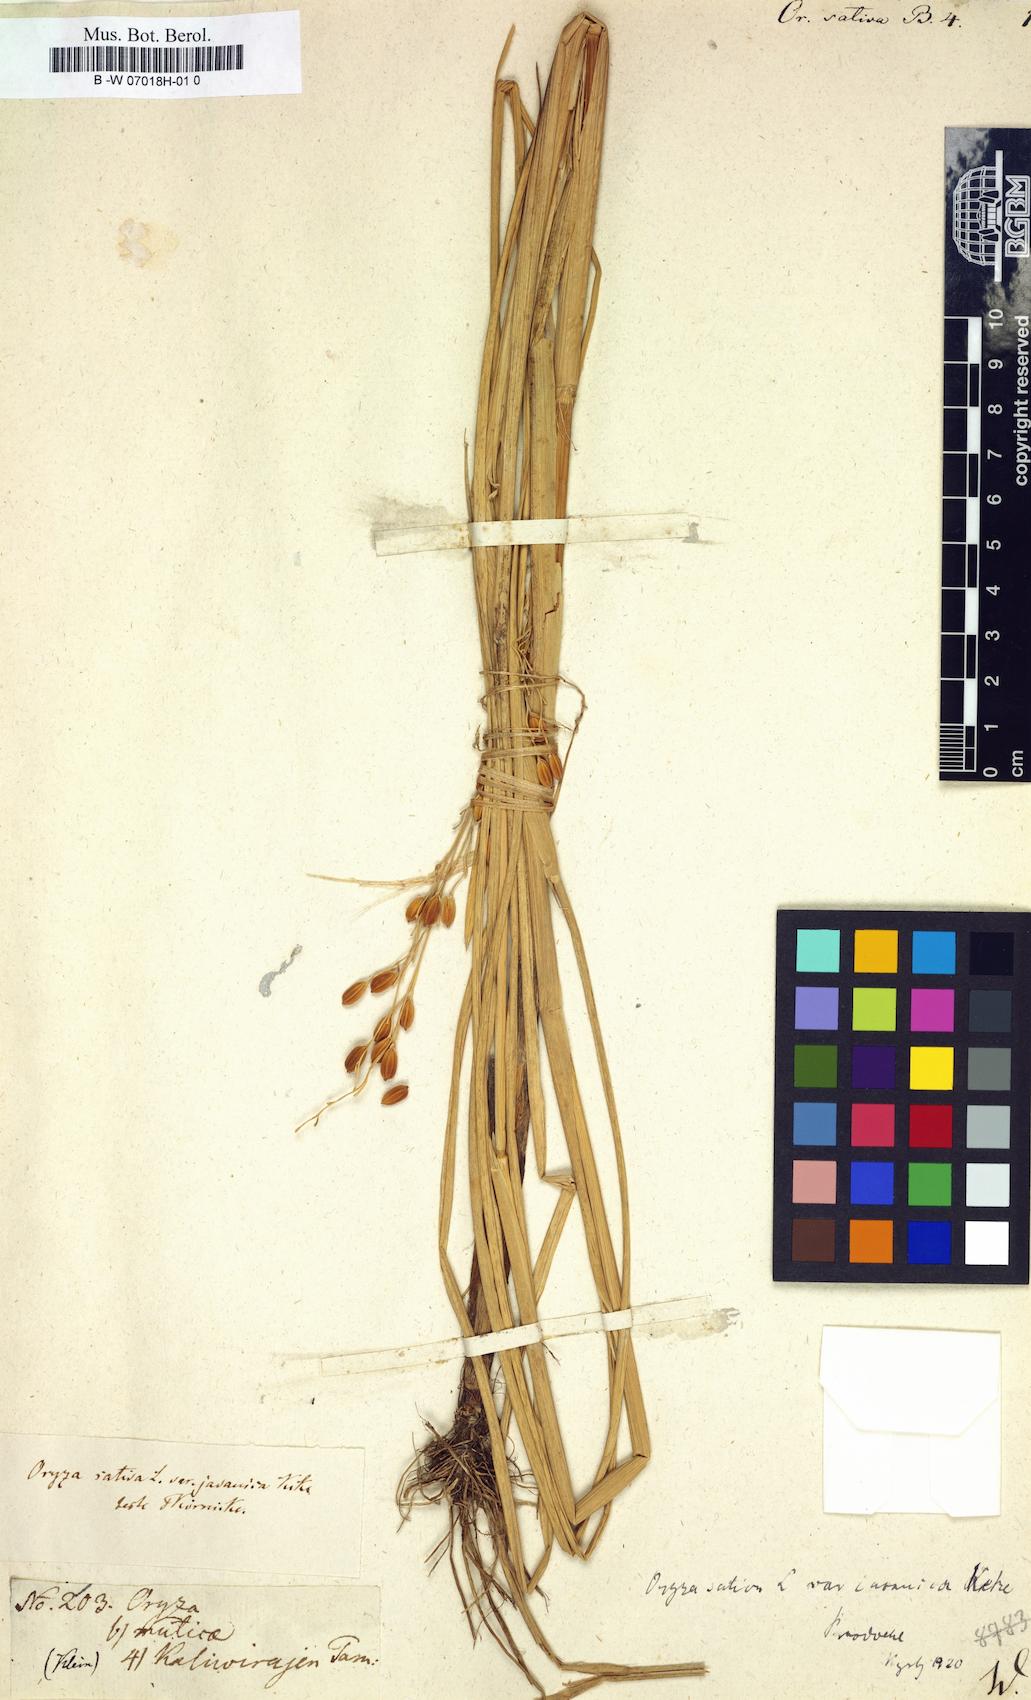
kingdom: Plantae
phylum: Tracheophyta
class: Liliopsida
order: Poales
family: Poaceae
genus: Oryza
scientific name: Oryza sativa
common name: Rice
